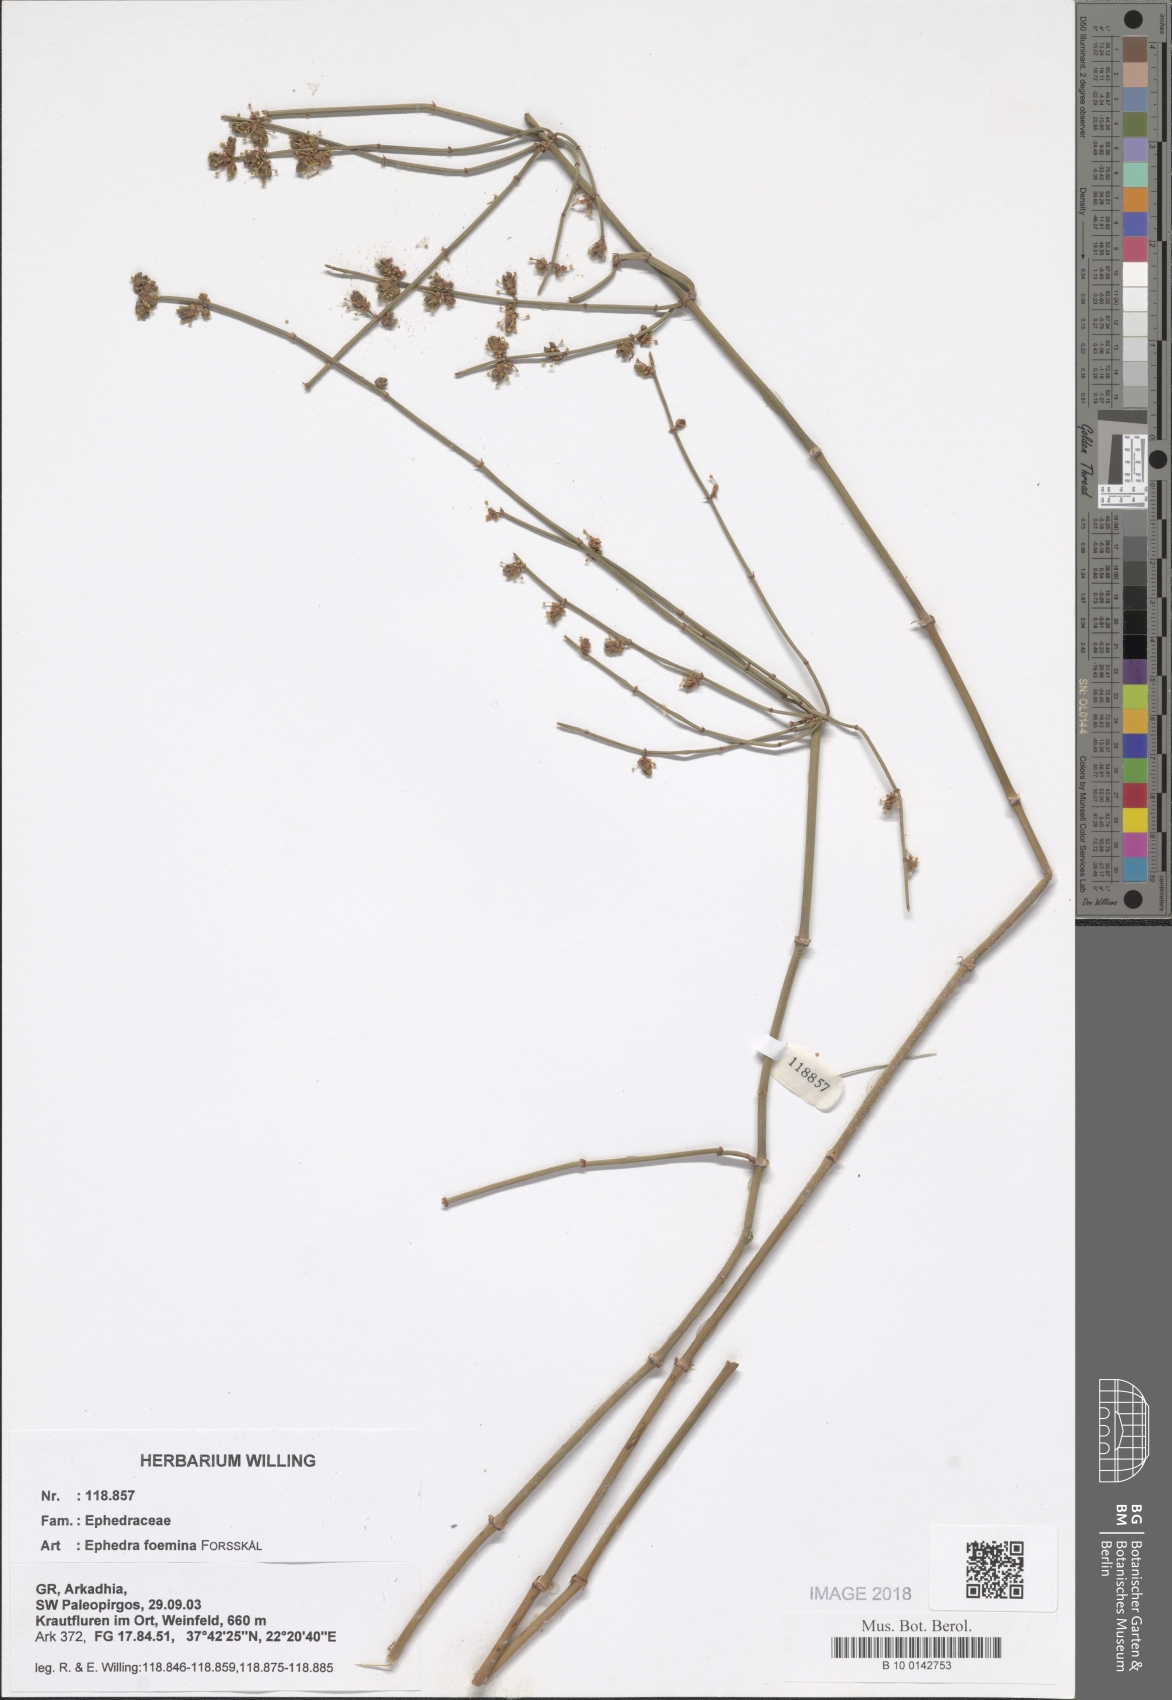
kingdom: Plantae
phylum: Tracheophyta
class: Gnetopsida
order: Ephedrales
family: Ephedraceae
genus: Ephedra
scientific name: Ephedra foeminea
